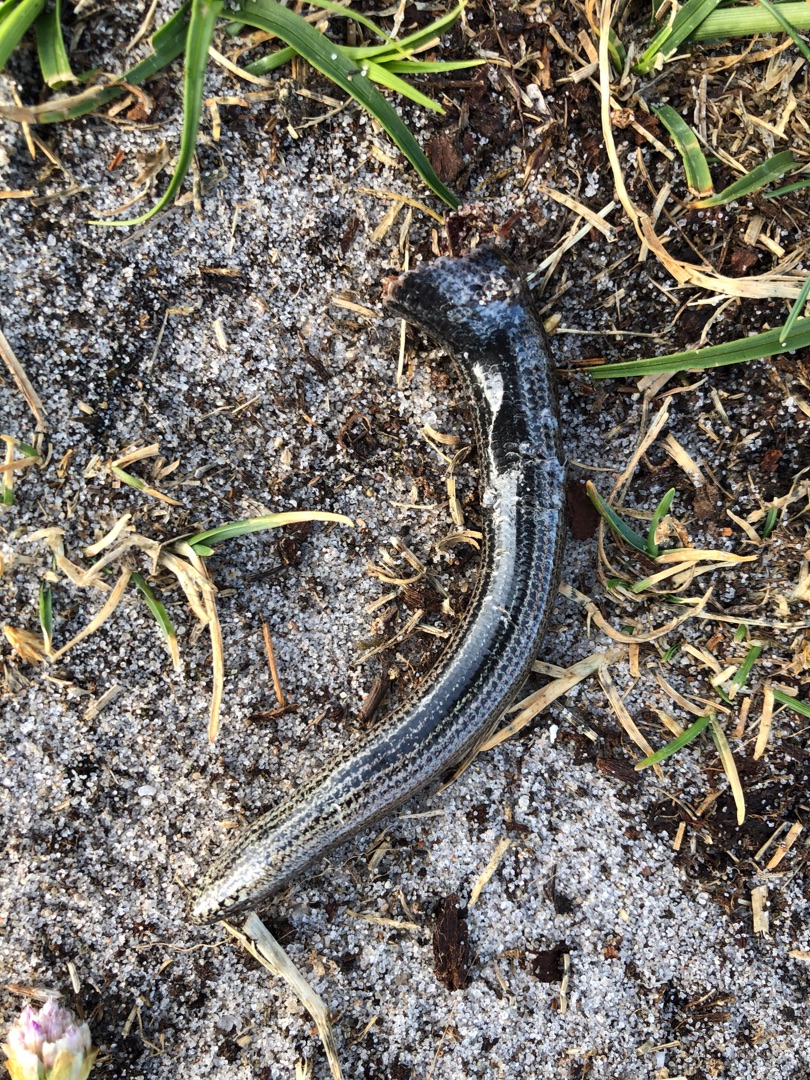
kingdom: Animalia
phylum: Chordata
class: Squamata
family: Anguidae
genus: Anguis
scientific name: Anguis fragilis
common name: Stålorm
